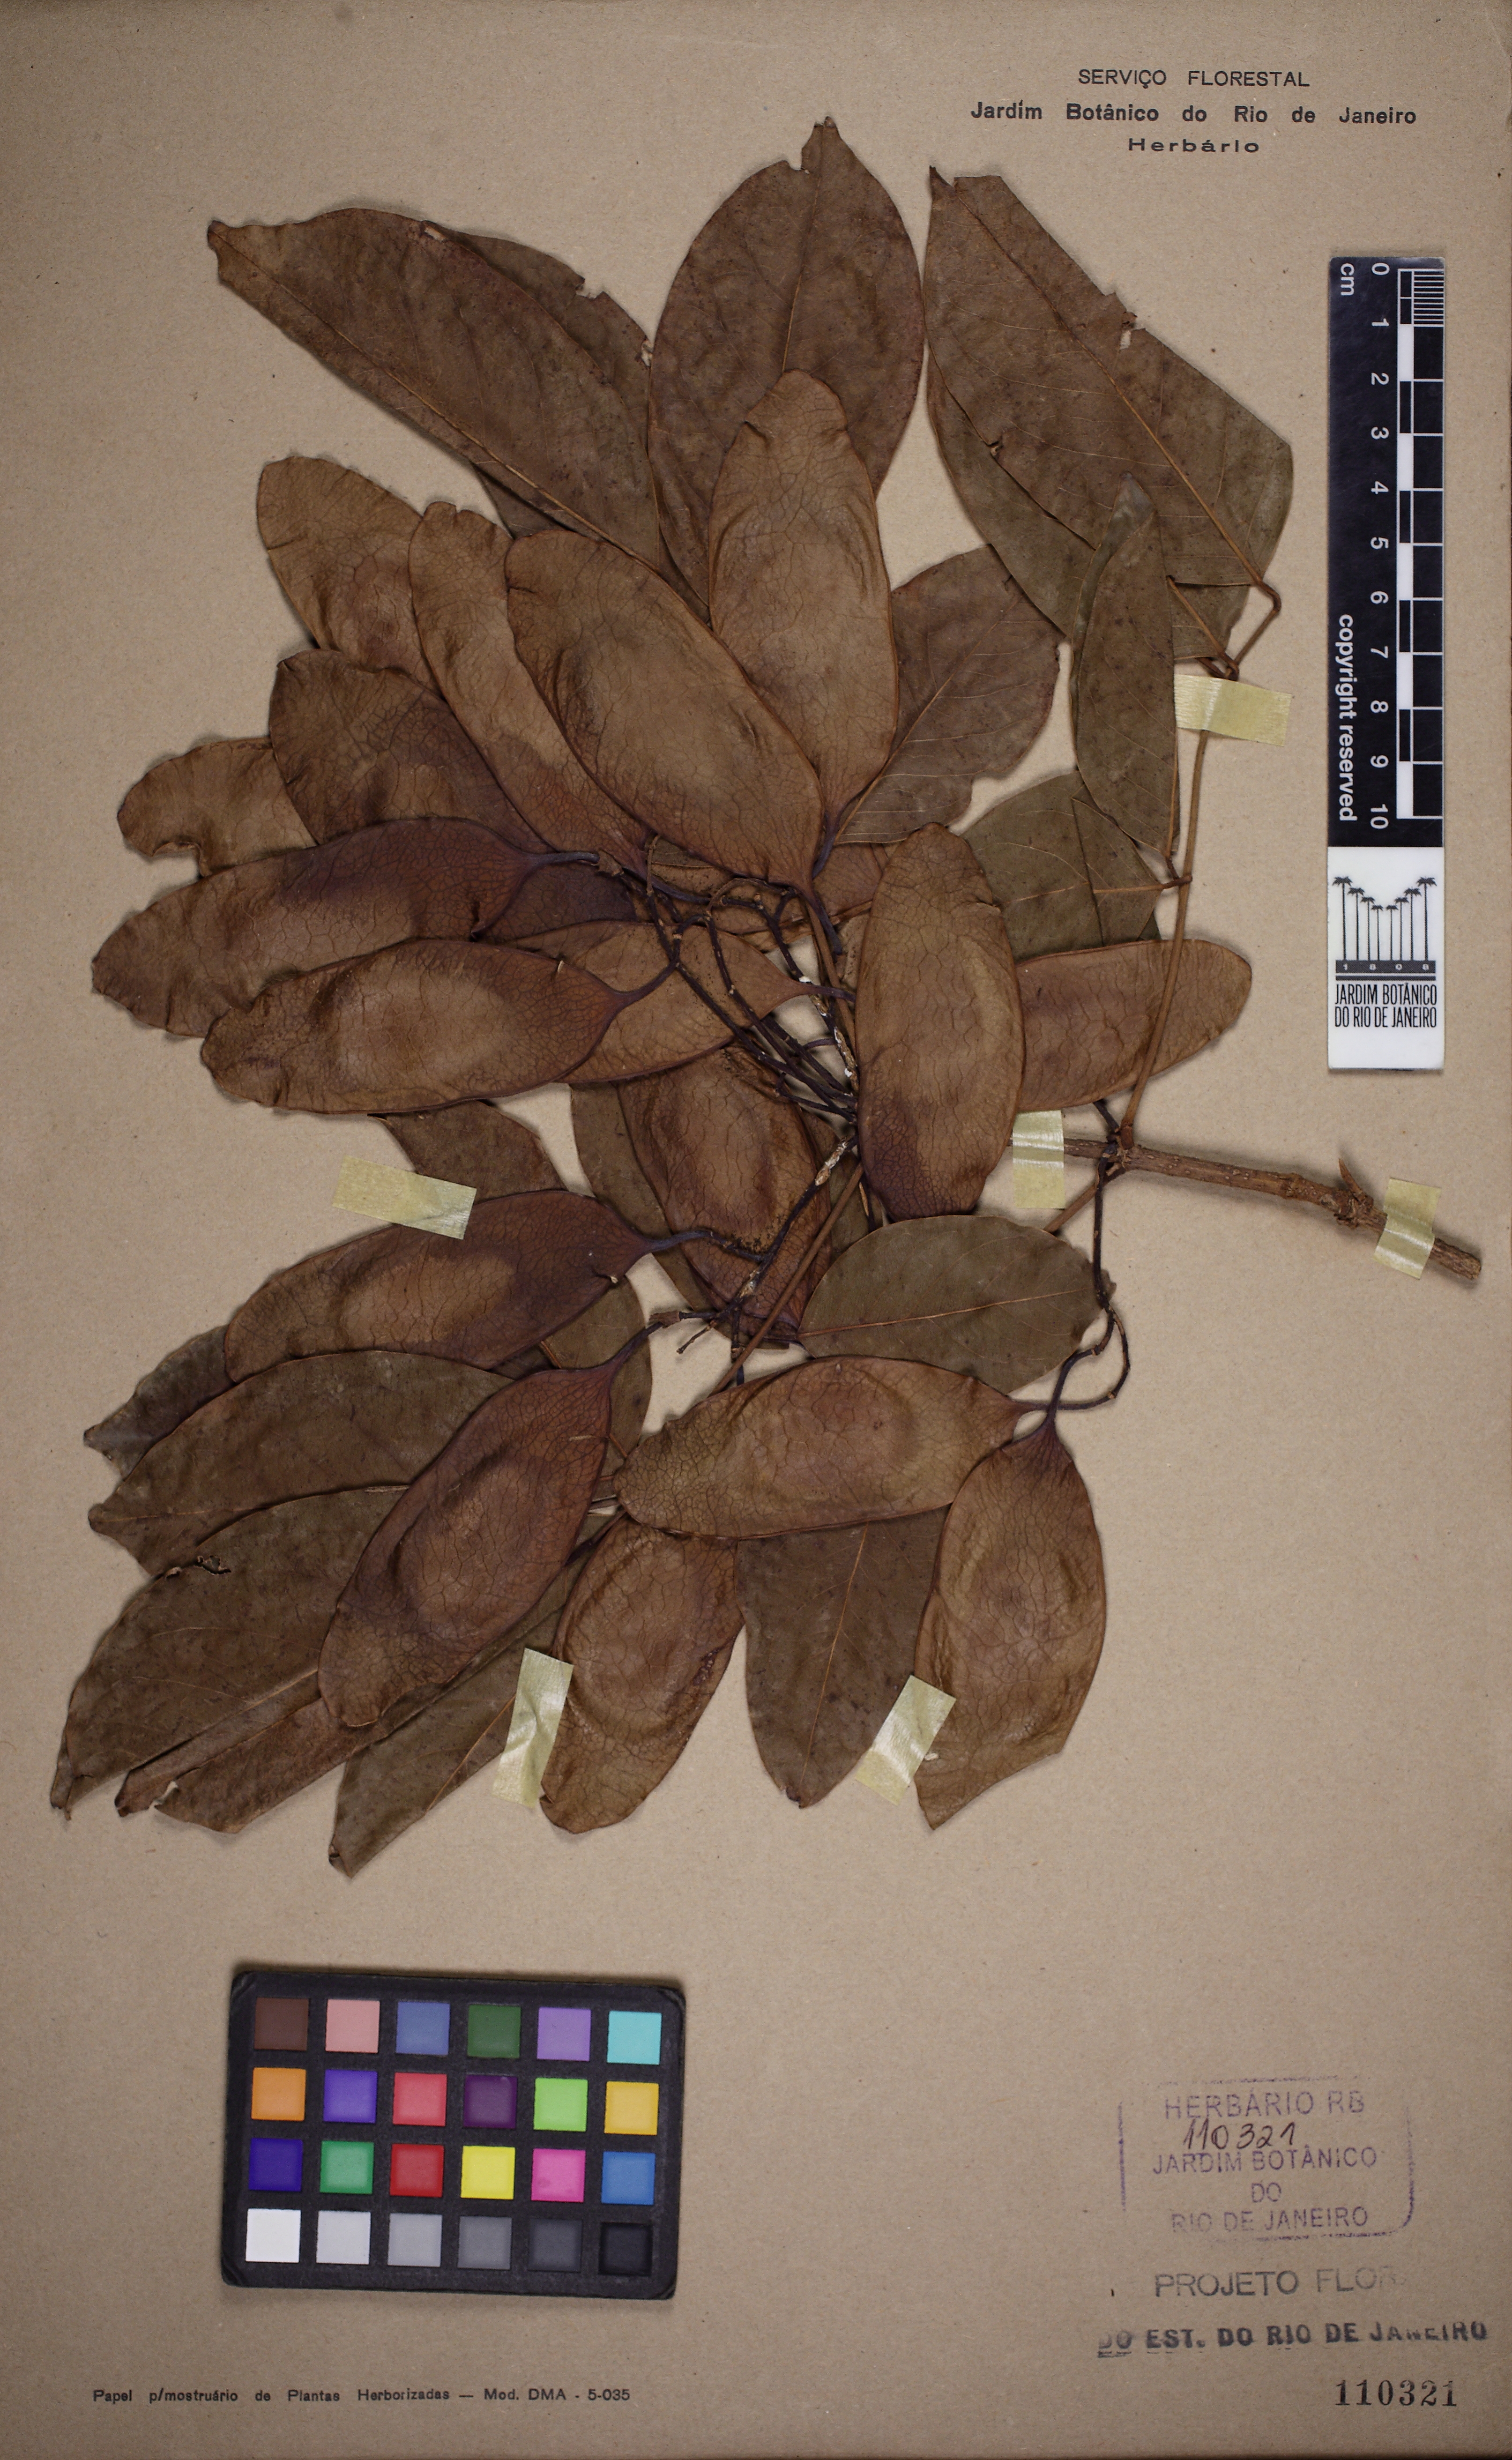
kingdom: Plantae
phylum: Tracheophyta
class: Magnoliopsida
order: Fabales
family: Fabaceae
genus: Platymiscium
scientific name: Platymiscium floribundum
